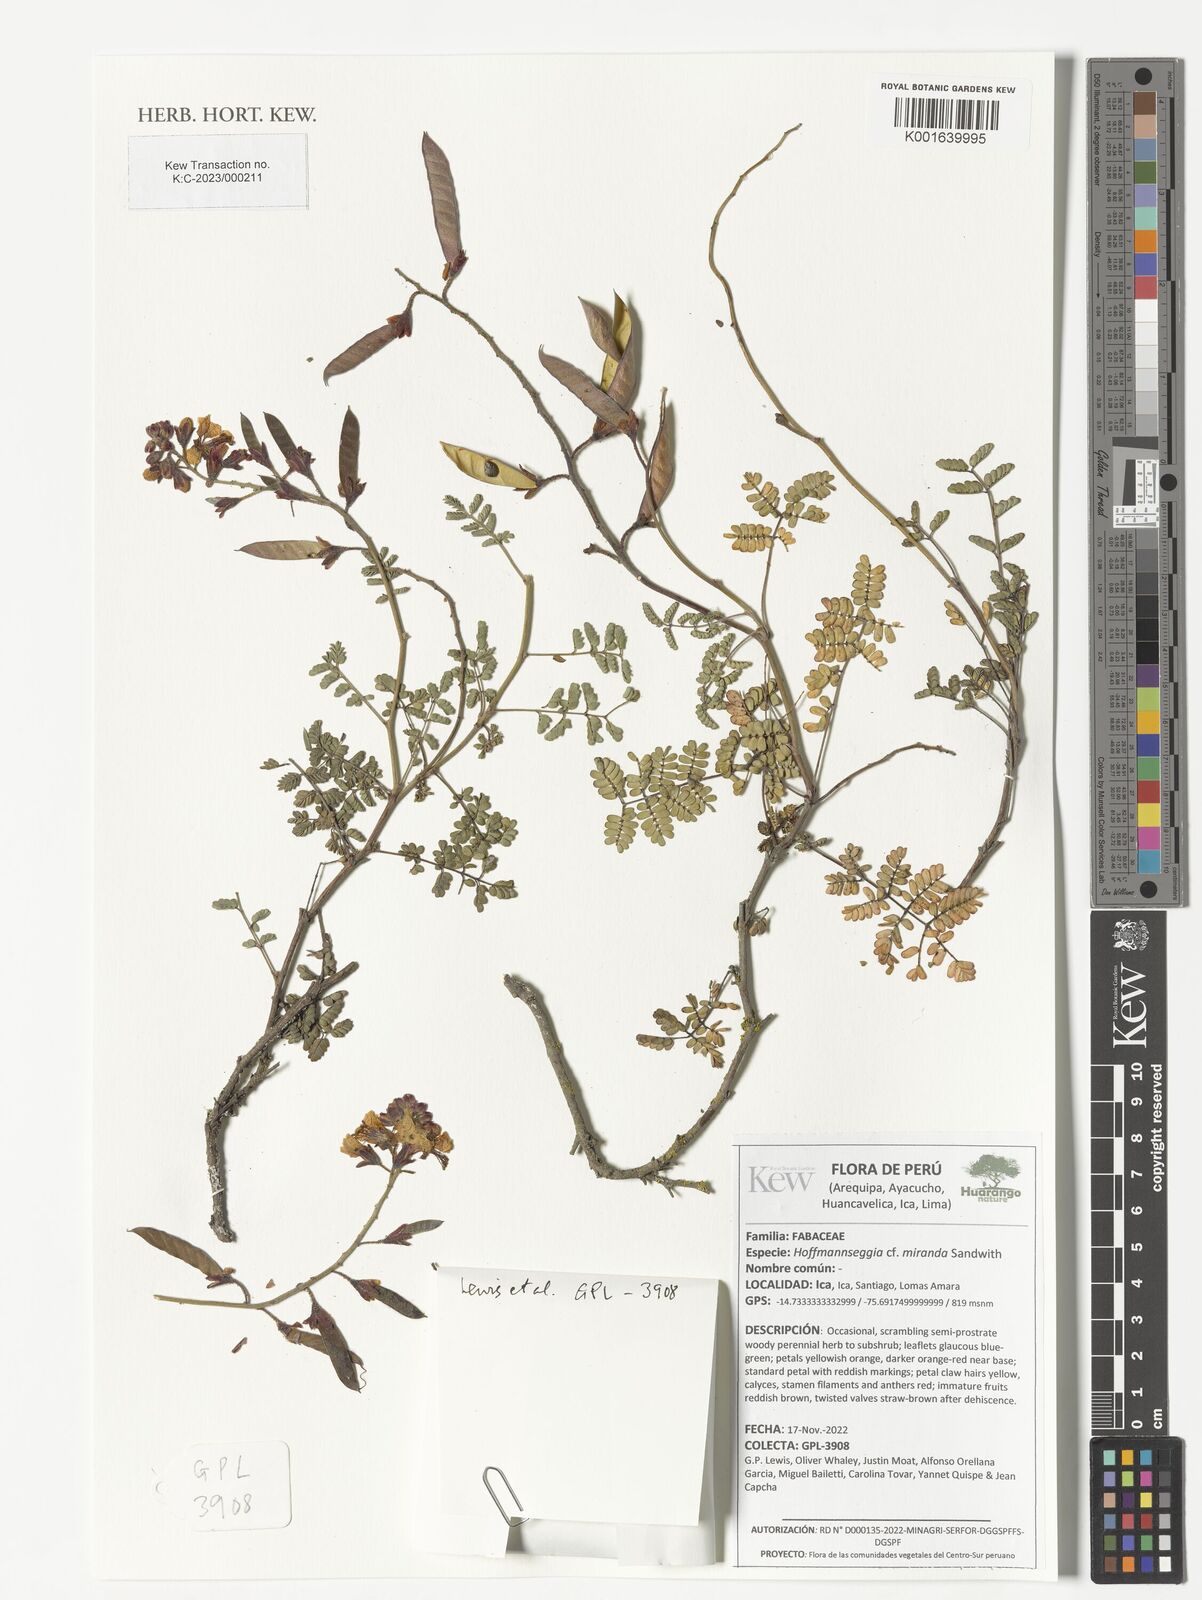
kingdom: Plantae
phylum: Tracheophyta
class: Magnoliopsida
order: Fabales
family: Fabaceae
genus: Hoffmannseggia
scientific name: Hoffmannseggia miranda
